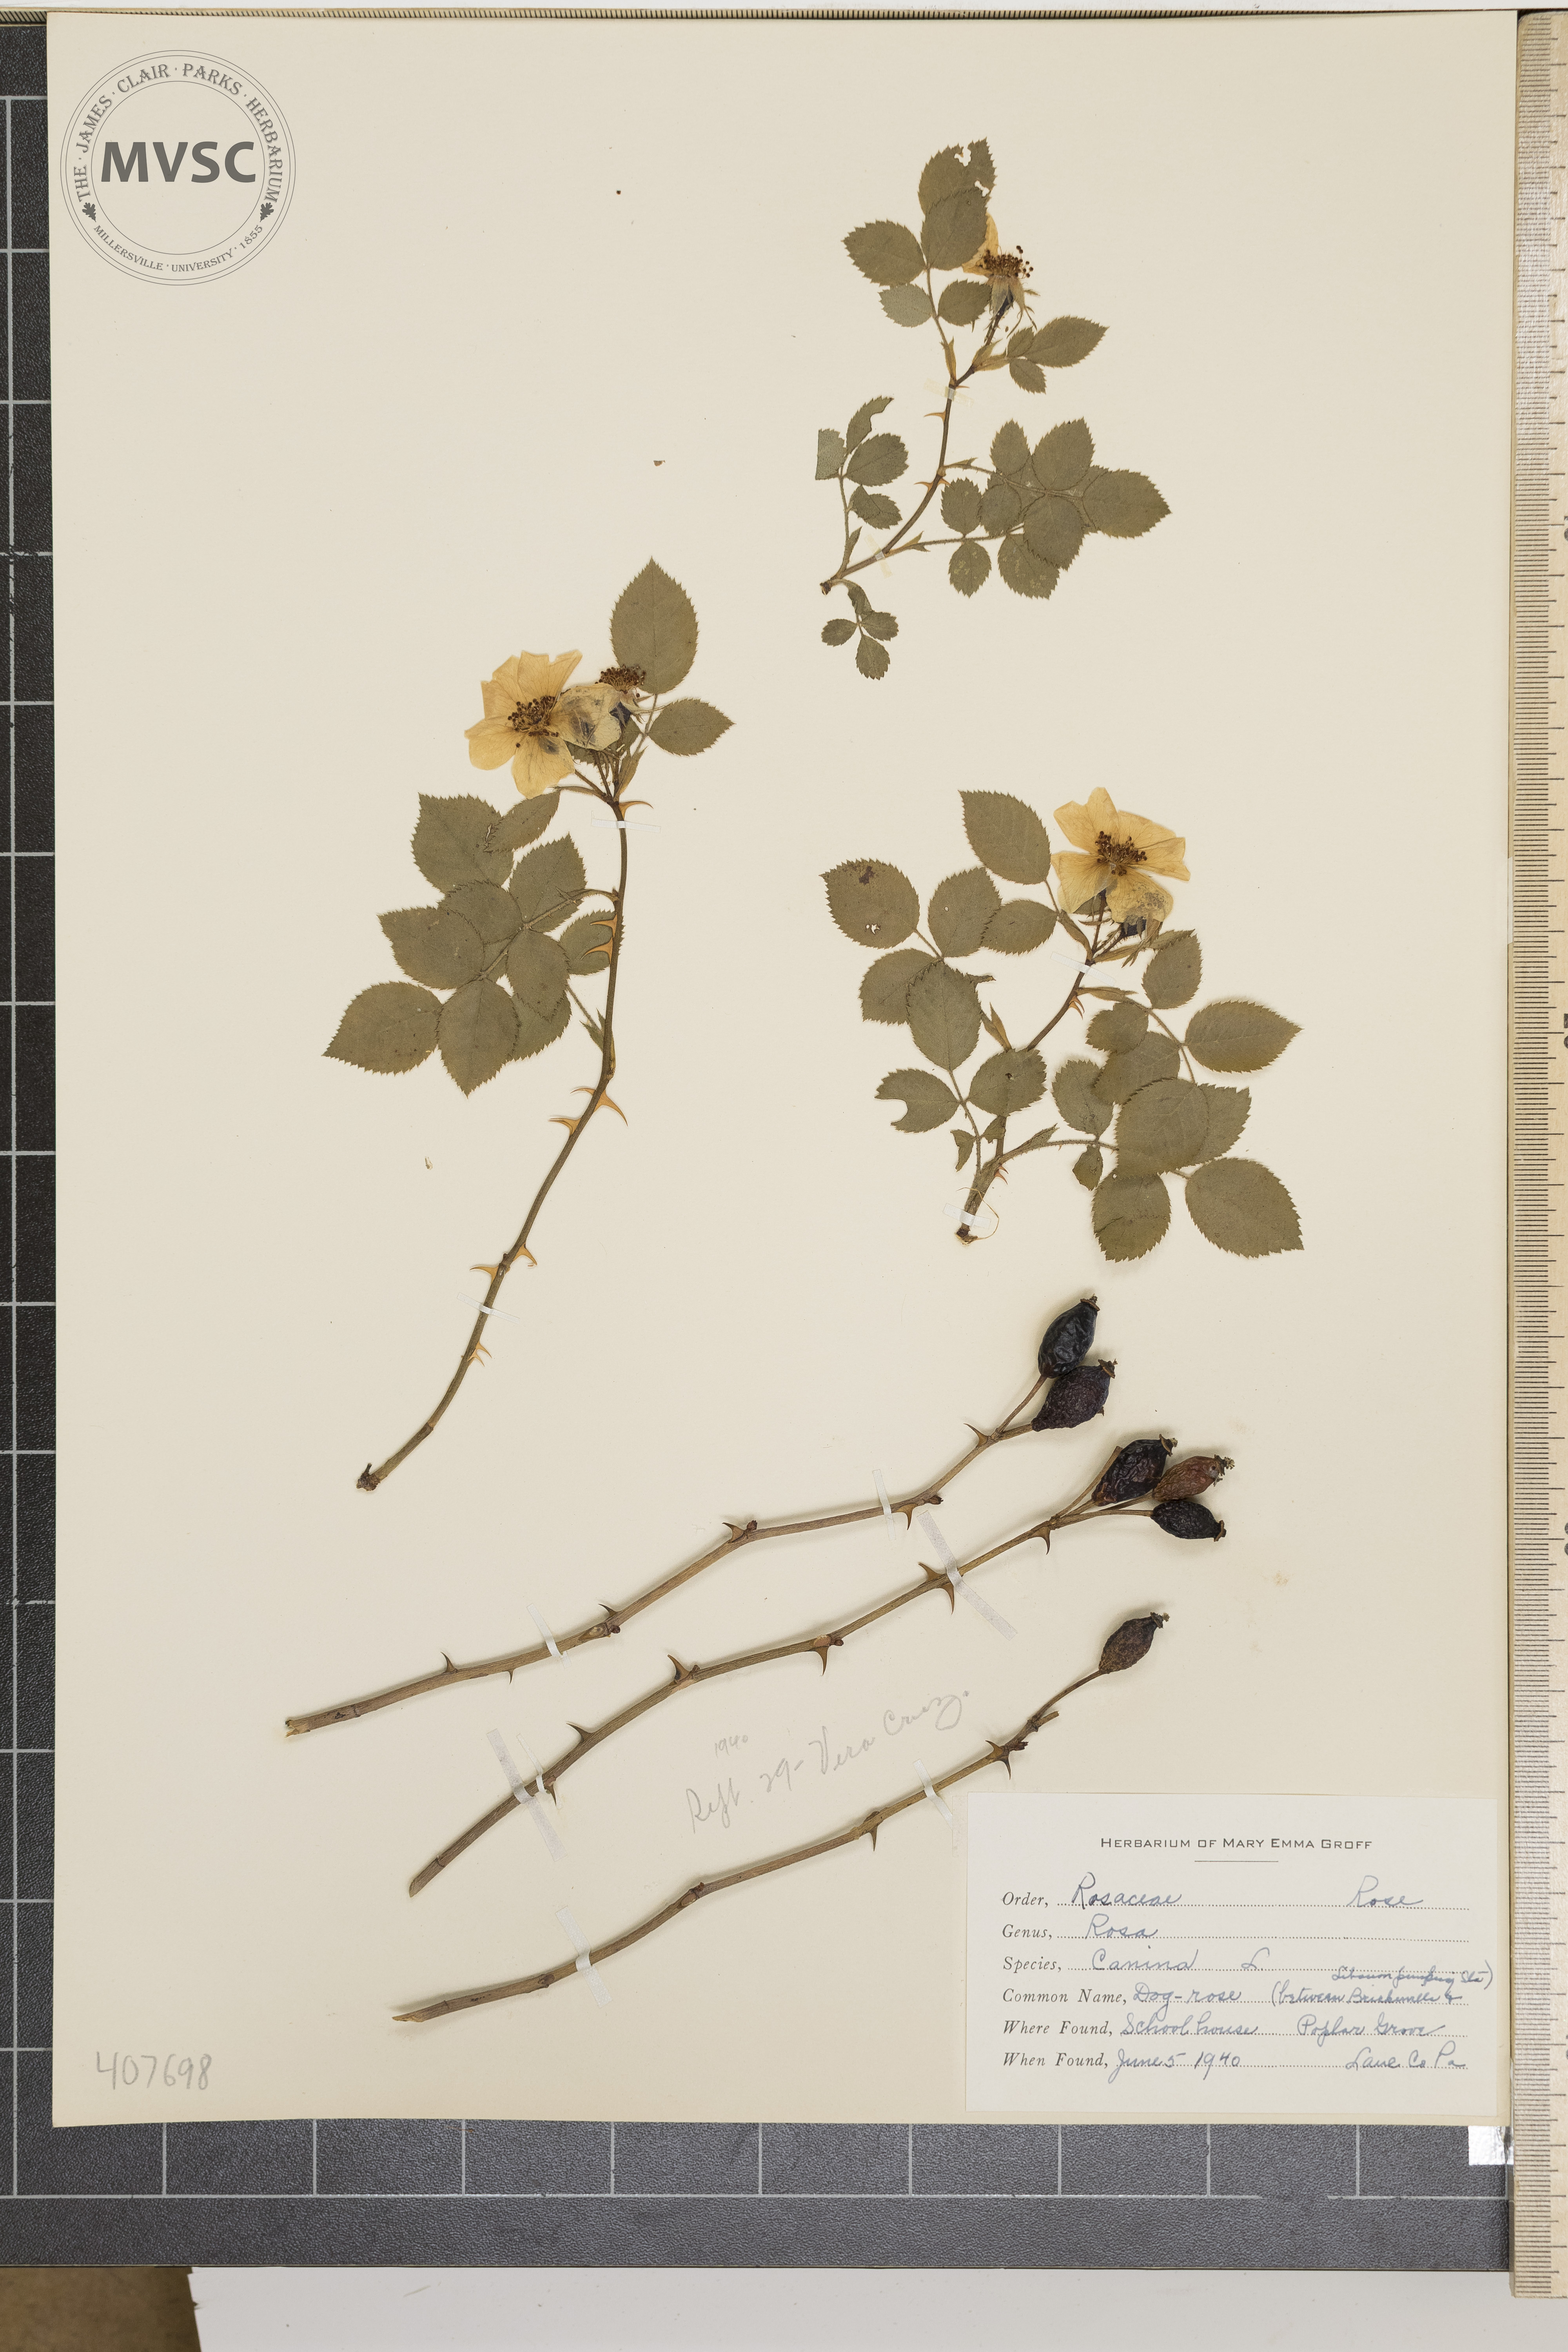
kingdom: Plantae
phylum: Tracheophyta
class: Magnoliopsida
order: Rosales
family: Rosaceae
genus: Rosa
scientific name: Rosa rubiginosa
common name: Sweet-briar
